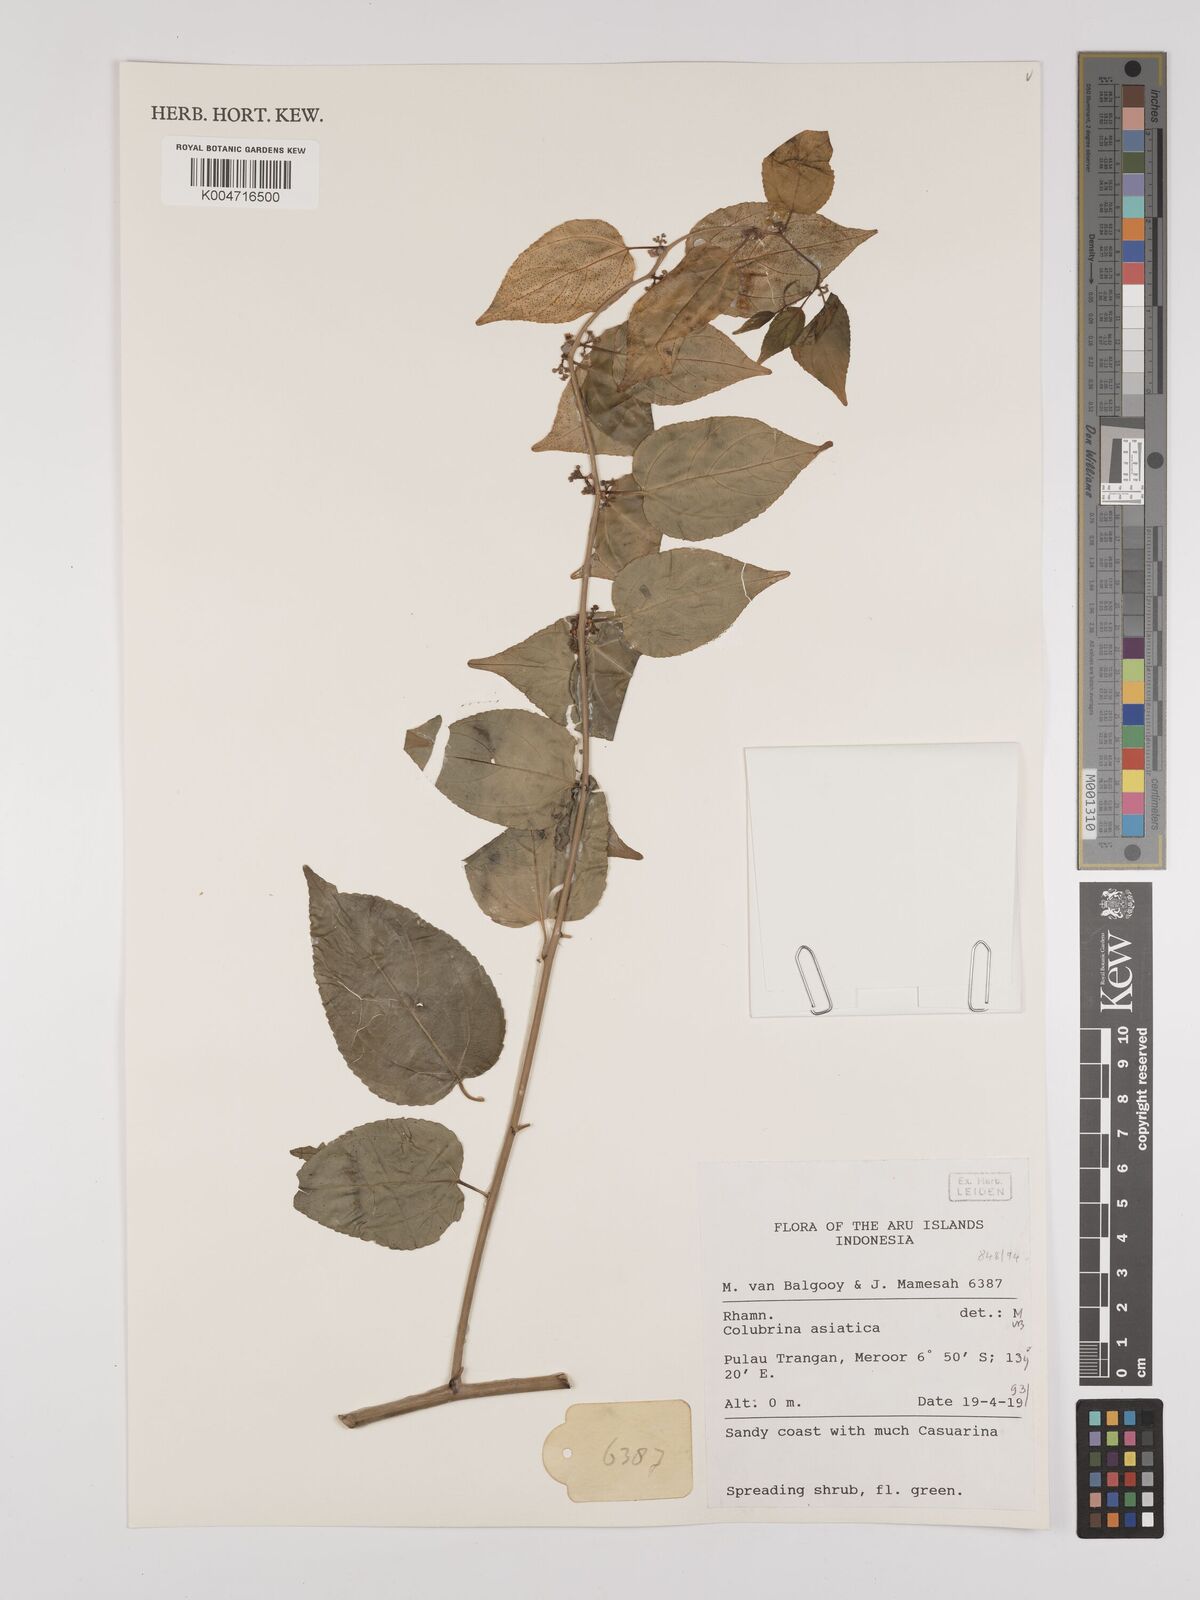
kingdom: Plantae
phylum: Tracheophyta
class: Magnoliopsida
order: Rosales
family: Rhamnaceae
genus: Colubrina
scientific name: Colubrina asiatica
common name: Asian nakedwood
